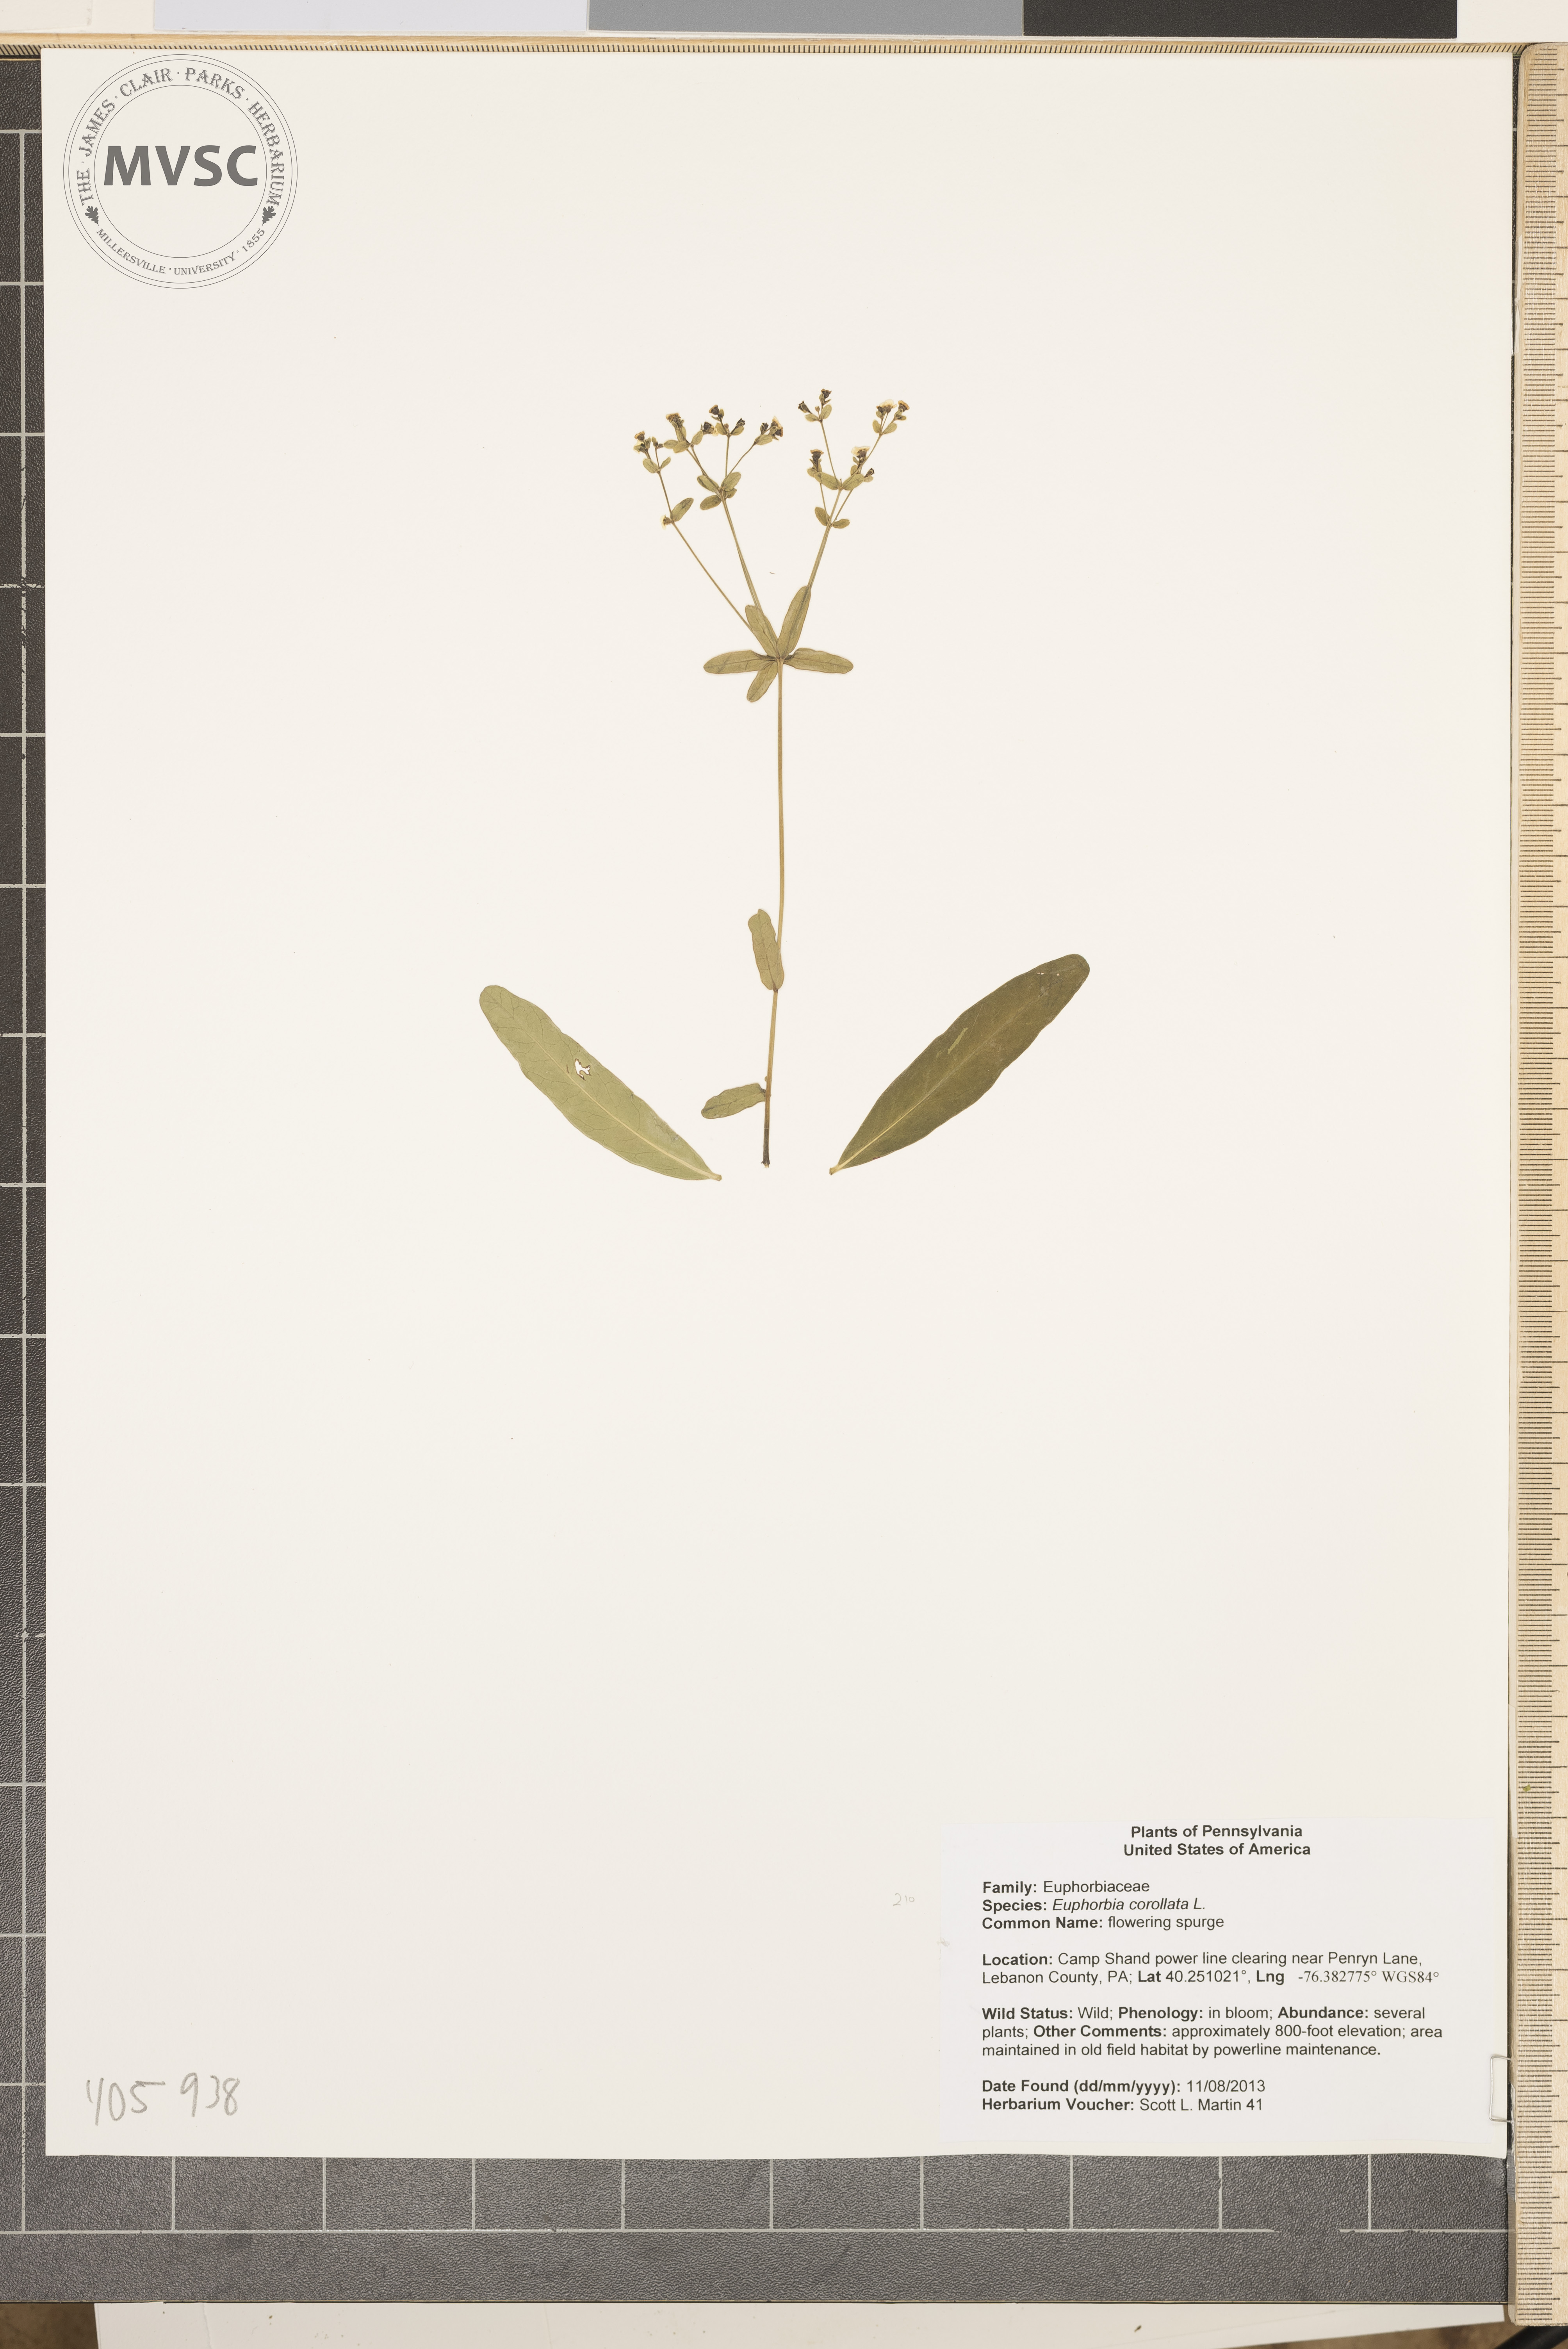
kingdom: Plantae
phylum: Tracheophyta
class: Magnoliopsida
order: Malpighiales
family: Euphorbiaceae
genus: Euphorbia
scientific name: Euphorbia corollata
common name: flowering spurge
